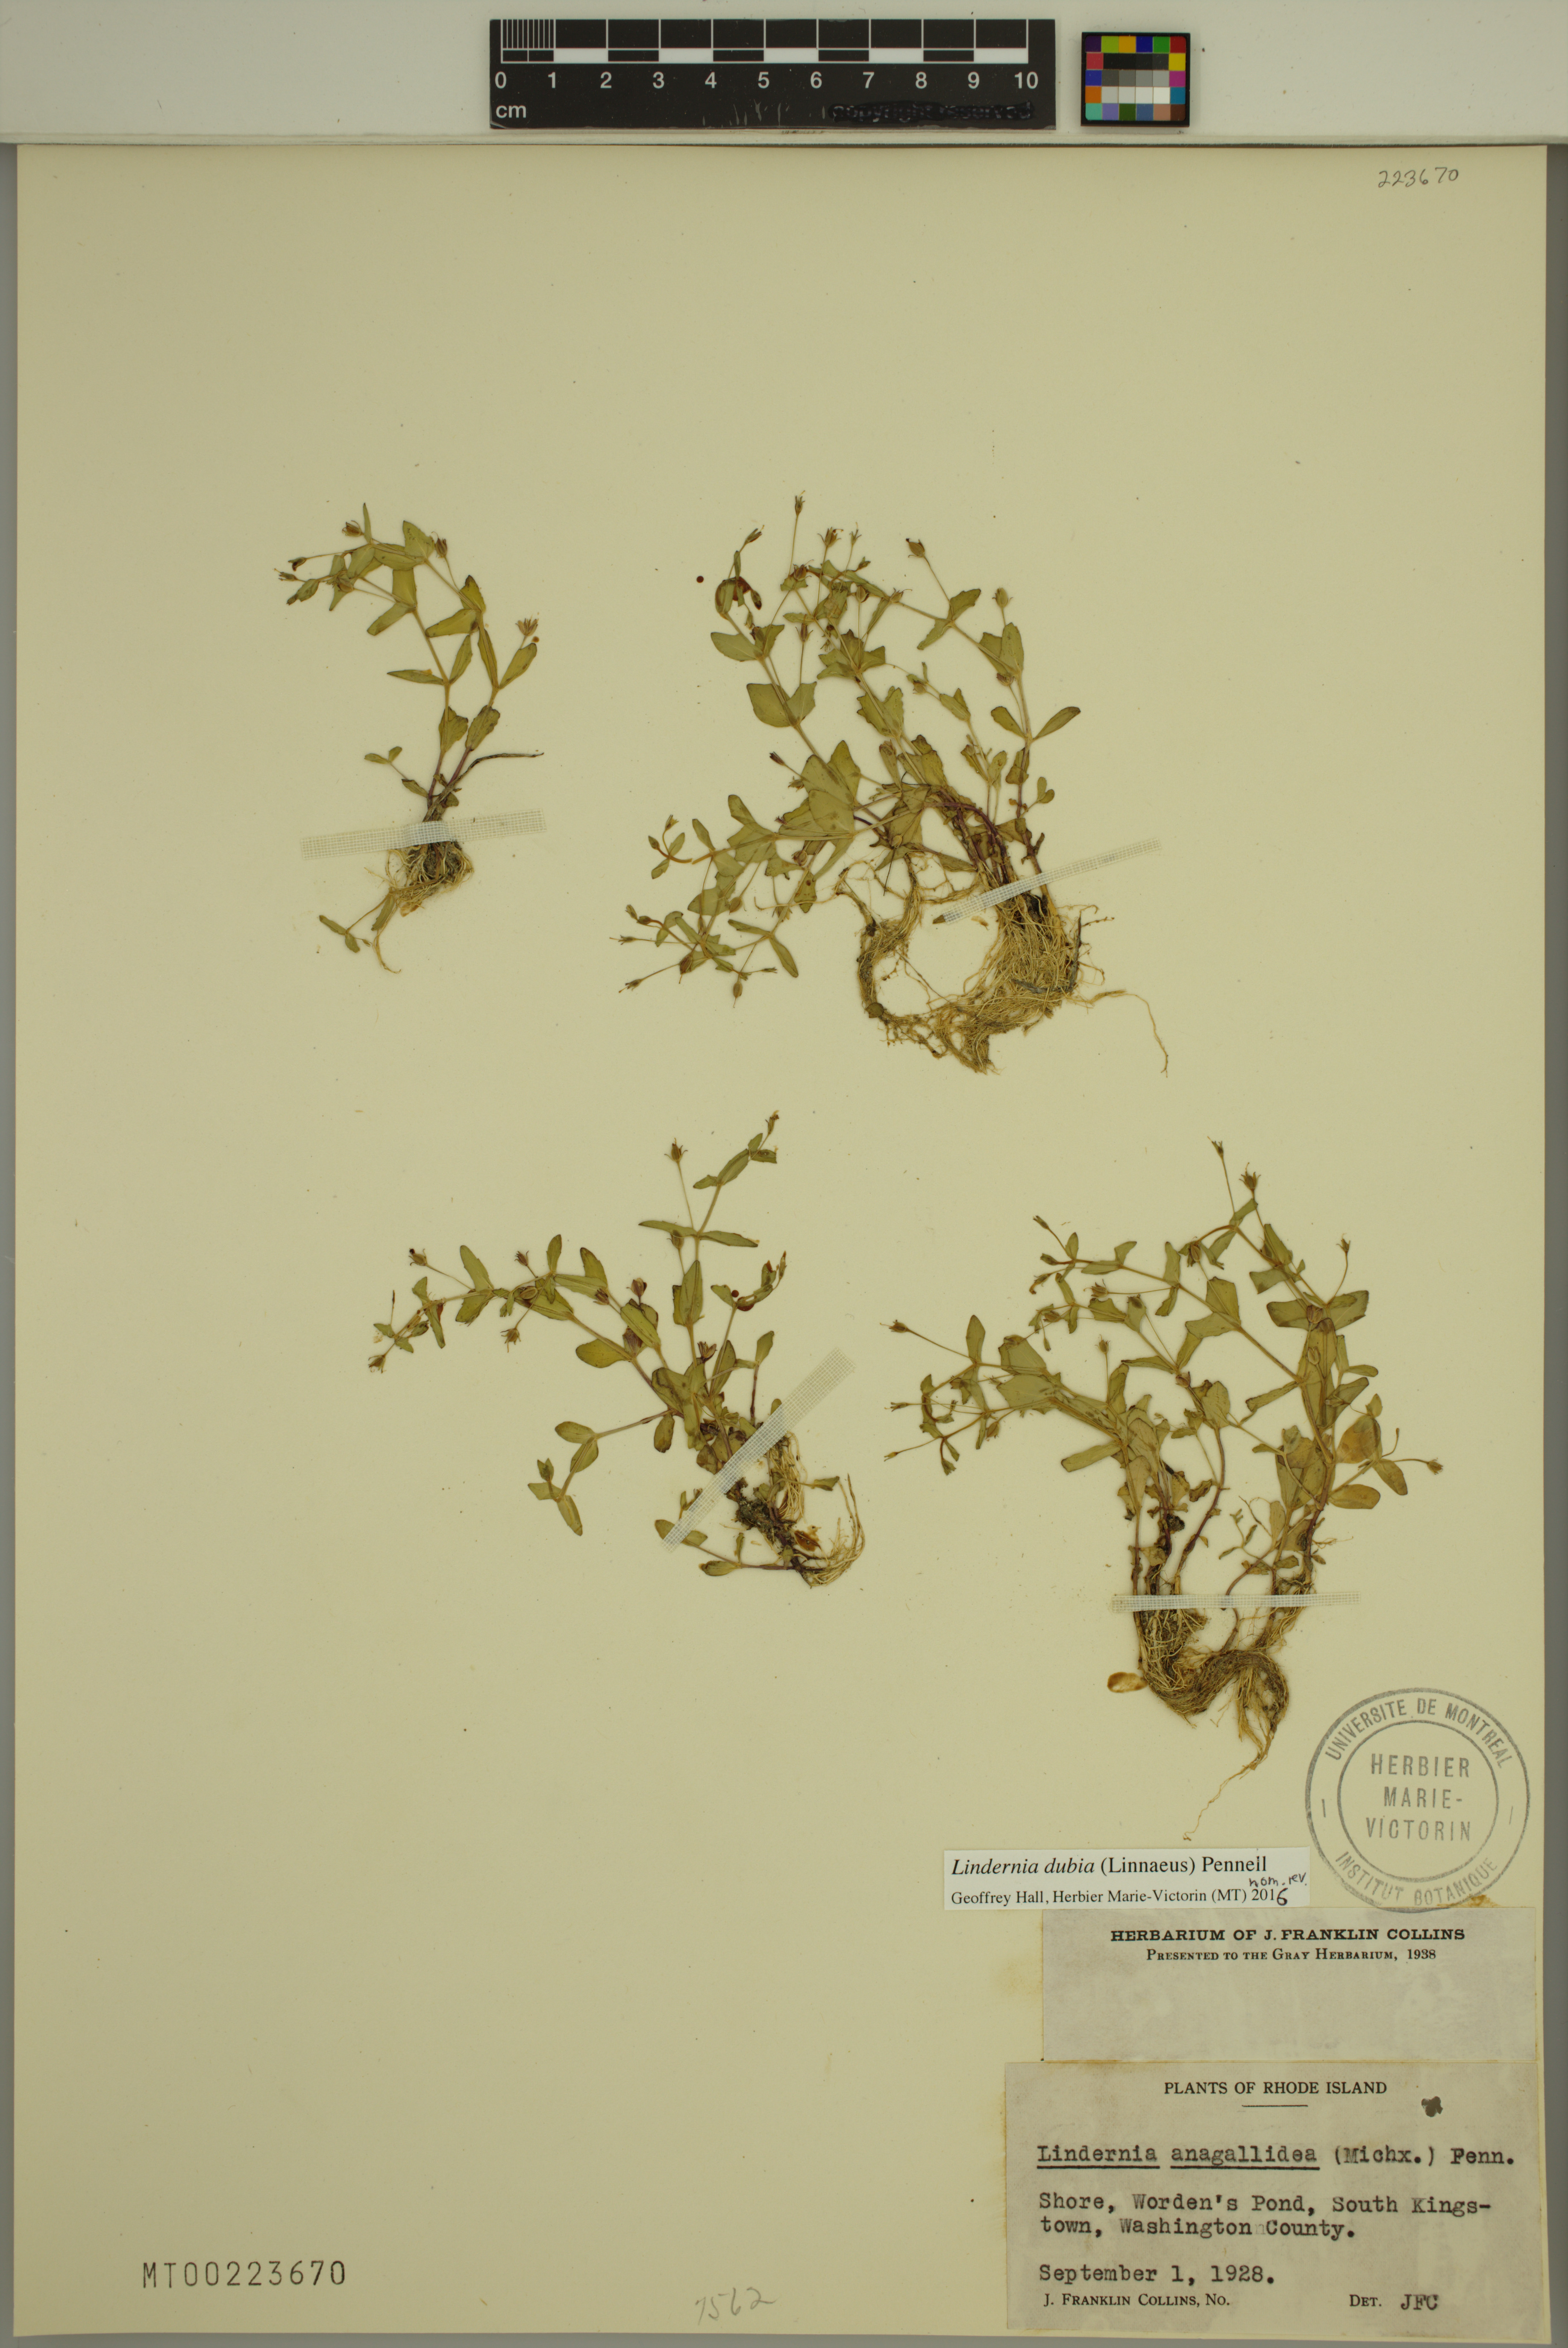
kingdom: Plantae
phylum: Tracheophyta
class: Magnoliopsida
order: Lamiales
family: Linderniaceae
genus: Lindernia
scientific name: Lindernia dubia
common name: Annual false pimpernel
